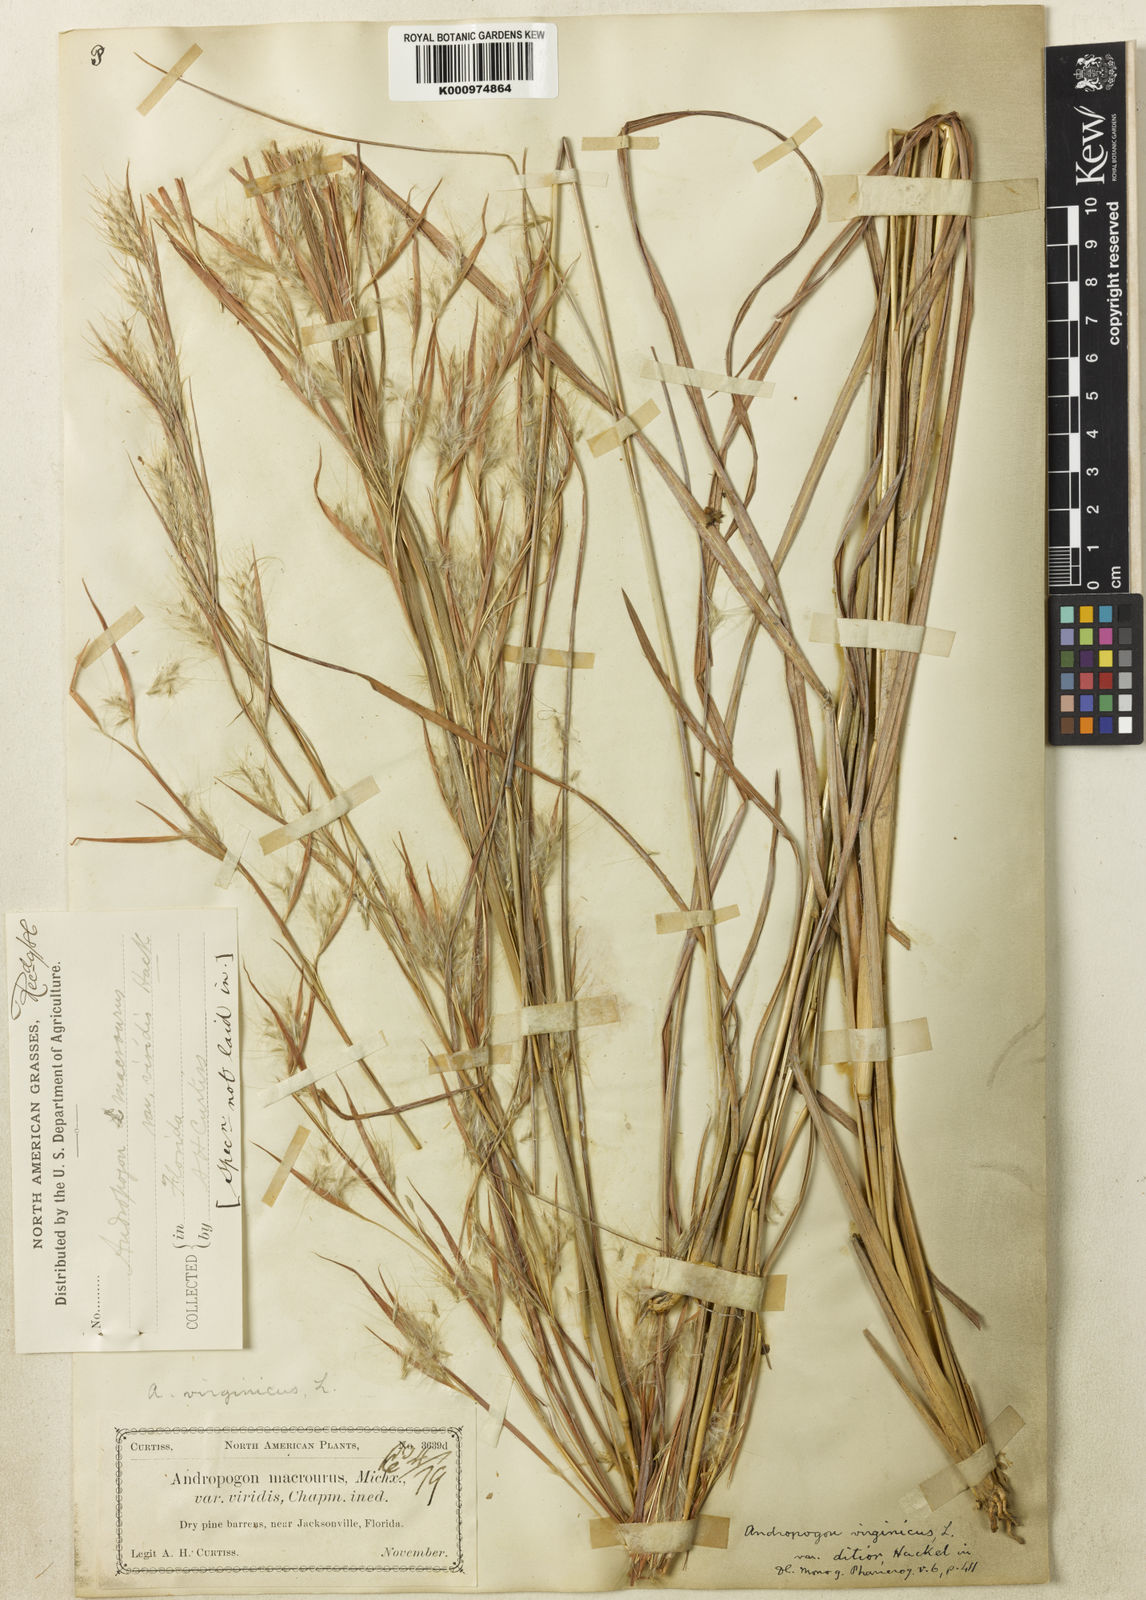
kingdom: Plantae
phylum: Tracheophyta
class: Liliopsida
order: Poales
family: Poaceae
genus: Andropogon
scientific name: Andropogon virginicus
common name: Broomsedge bluestem
